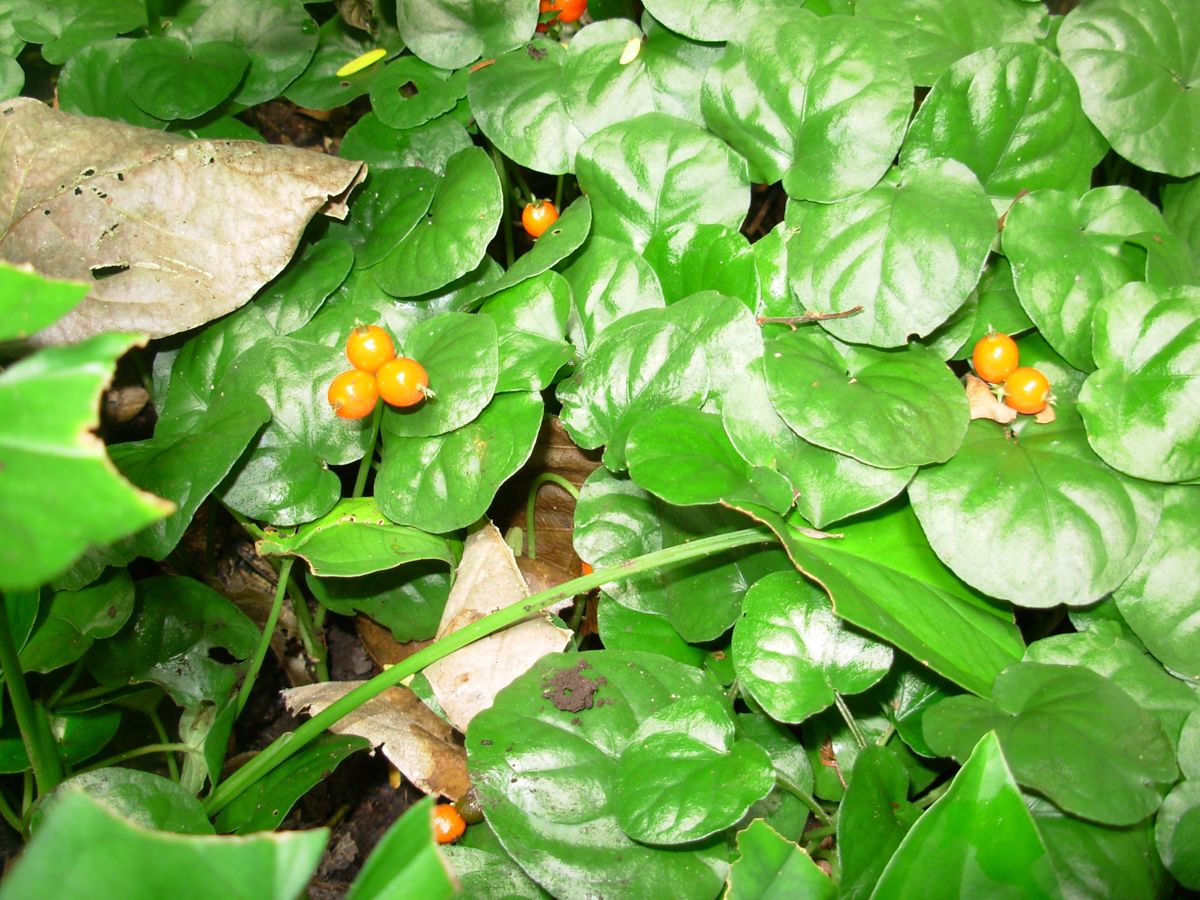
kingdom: Plantae
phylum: Tracheophyta
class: Magnoliopsida
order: Gentianales
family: Rubiaceae
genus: Geophila
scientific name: Geophila repens
